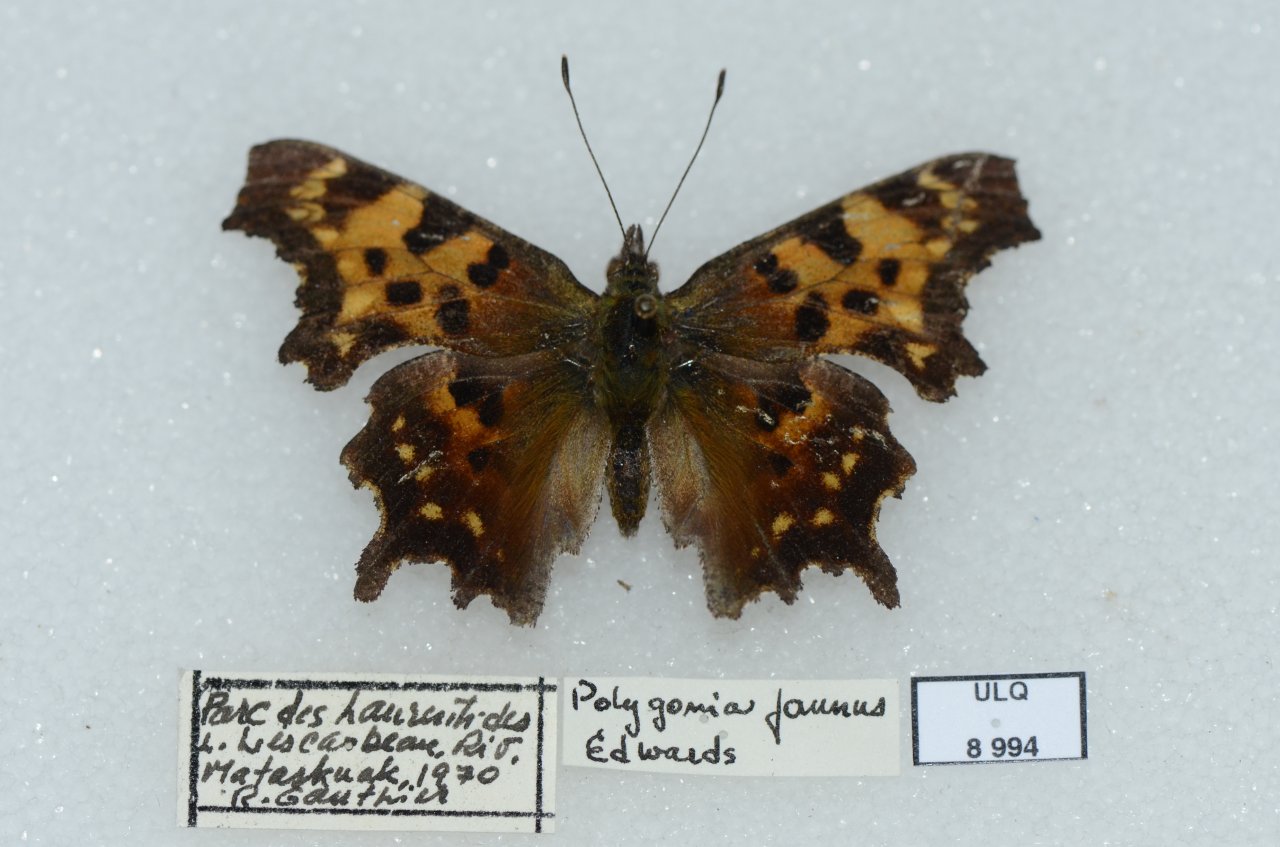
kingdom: Animalia
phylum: Arthropoda
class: Insecta
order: Lepidoptera
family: Nymphalidae
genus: Polygonia
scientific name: Polygonia faunus
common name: Green Comma
